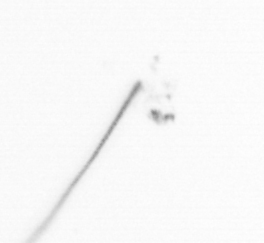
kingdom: Chromista
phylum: Ochrophyta
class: Bacillariophyceae
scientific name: Bacillariophyceae
